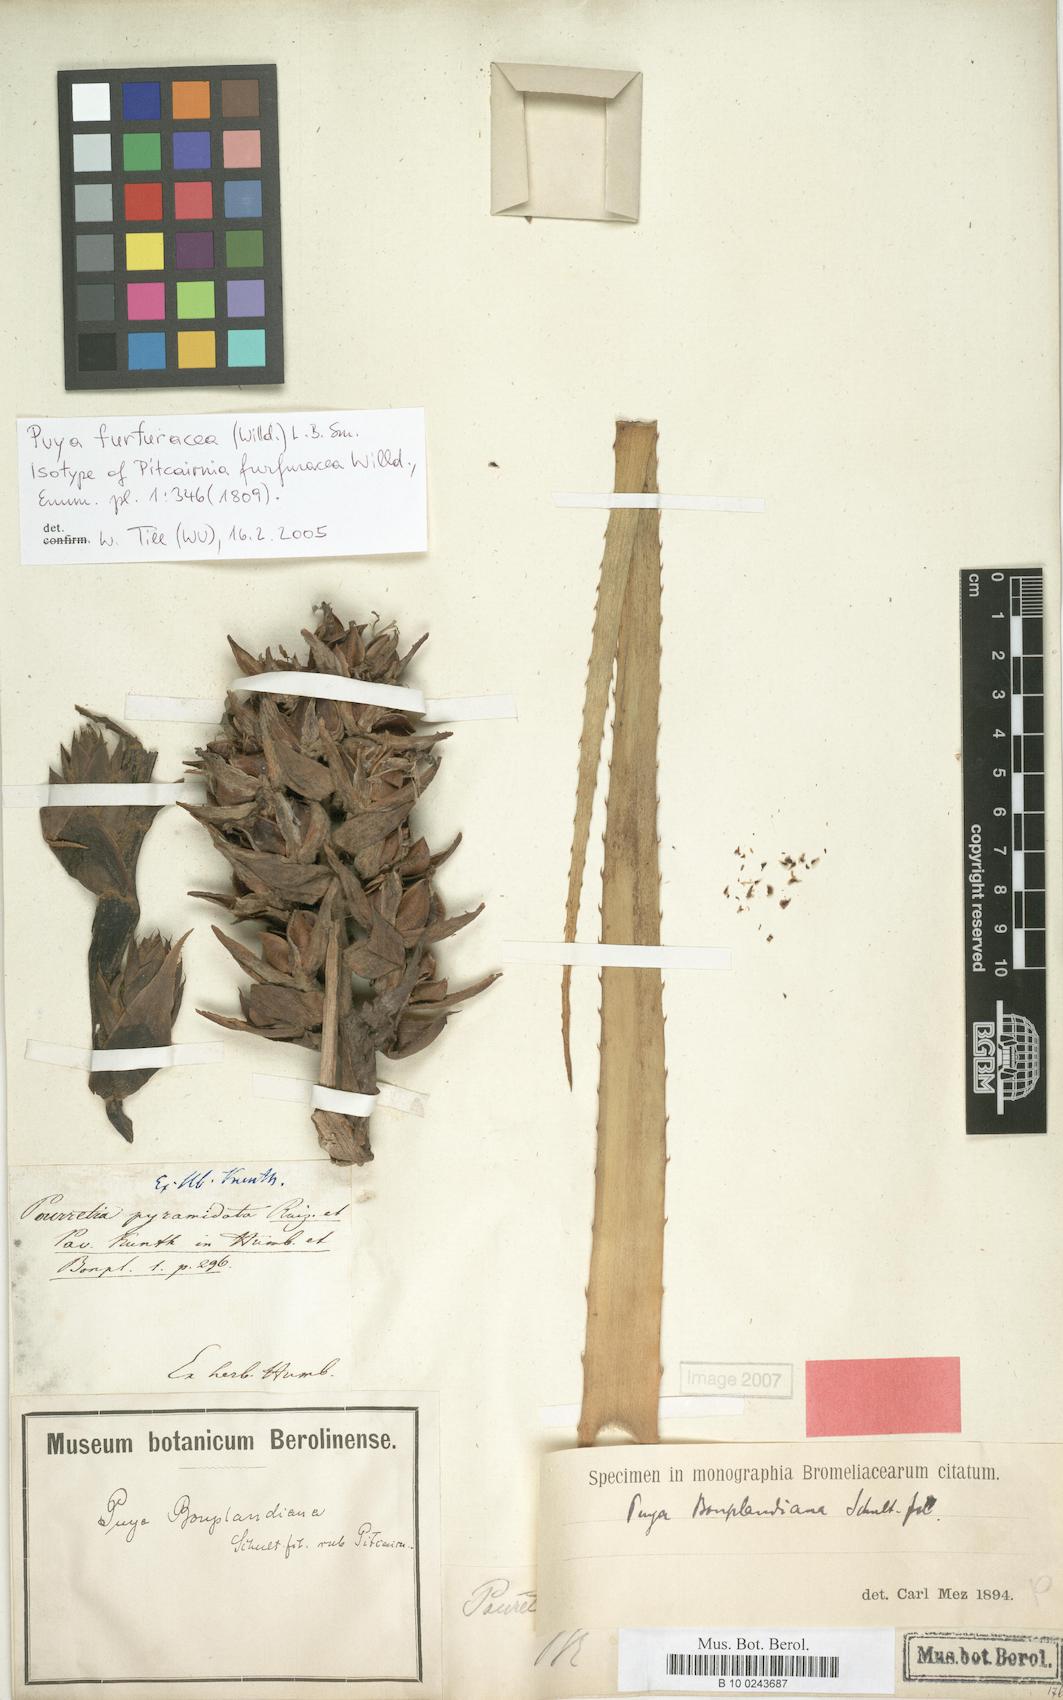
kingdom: Plantae
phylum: Tracheophyta
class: Liliopsida
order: Poales
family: Bromeliaceae
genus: Puya
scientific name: Puya furfuracea
